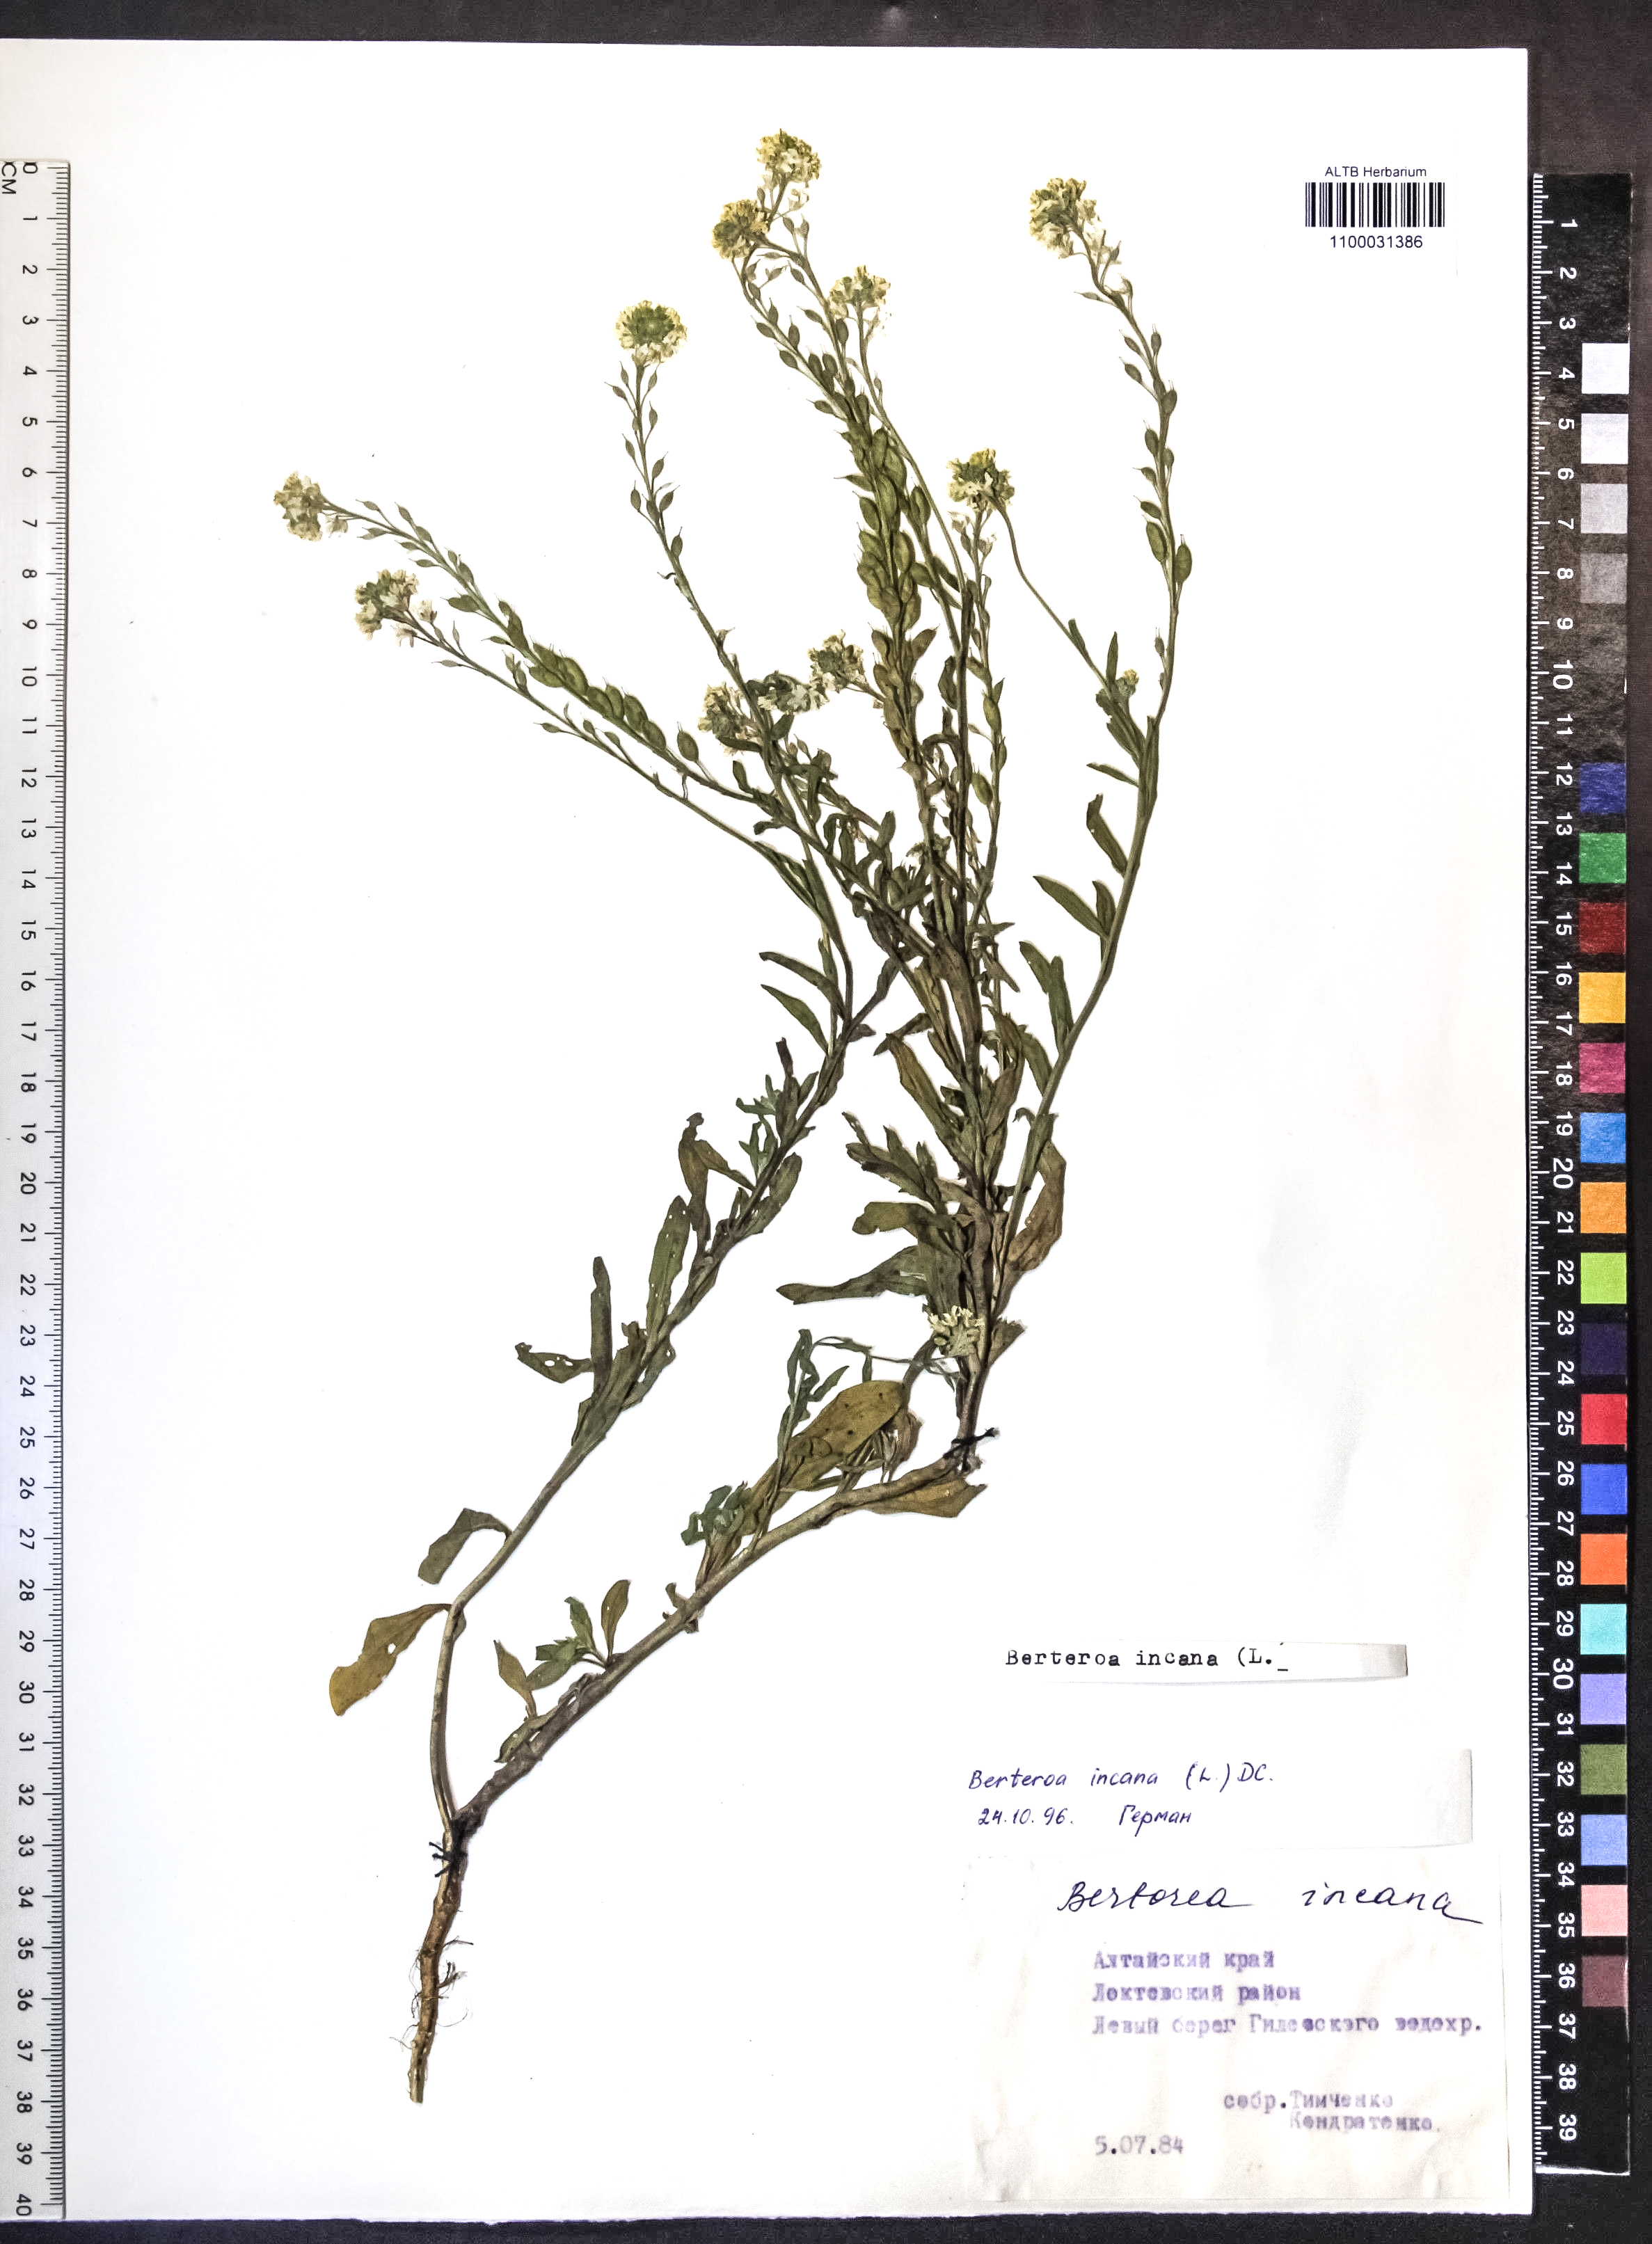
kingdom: Plantae
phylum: Tracheophyta
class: Magnoliopsida
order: Brassicales
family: Brassicaceae
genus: Berteroa
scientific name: Berteroa incana
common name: Hoary alison
